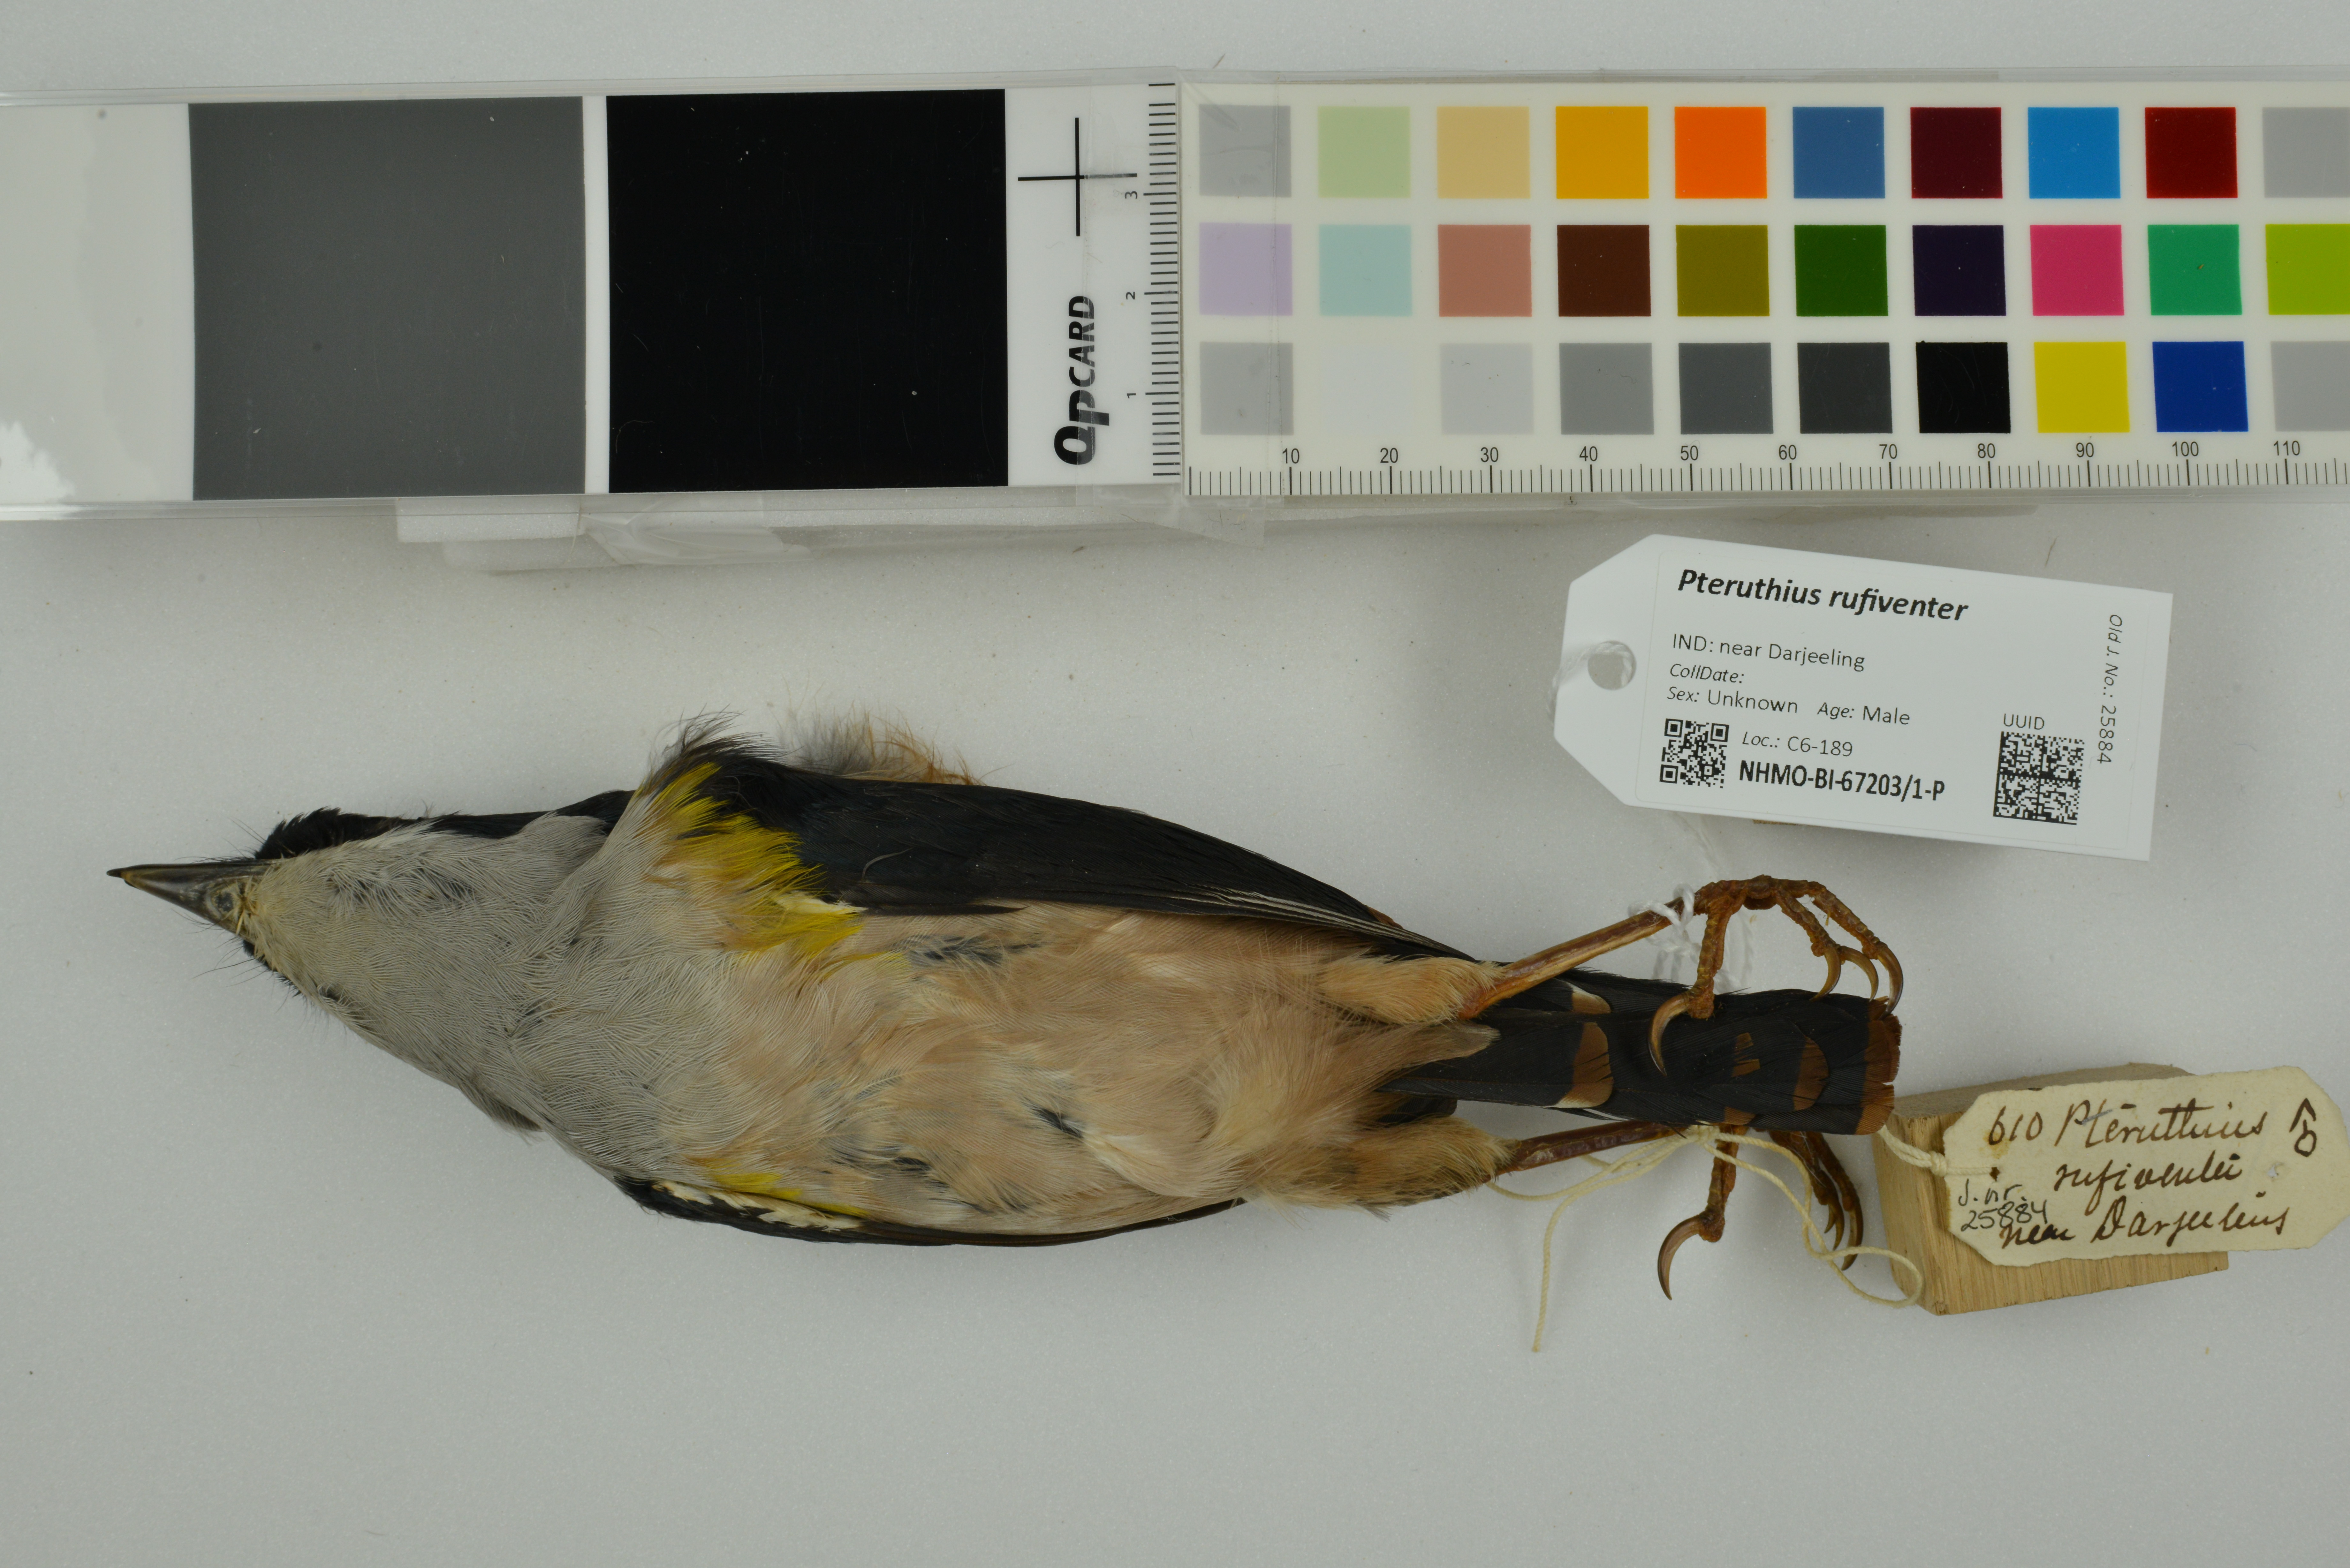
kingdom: Animalia
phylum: Chordata
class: Aves
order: Passeriformes
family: Vireonidae
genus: Pteruthius
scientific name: Pteruthius rufiventer
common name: Black-headed shrike-babbler
